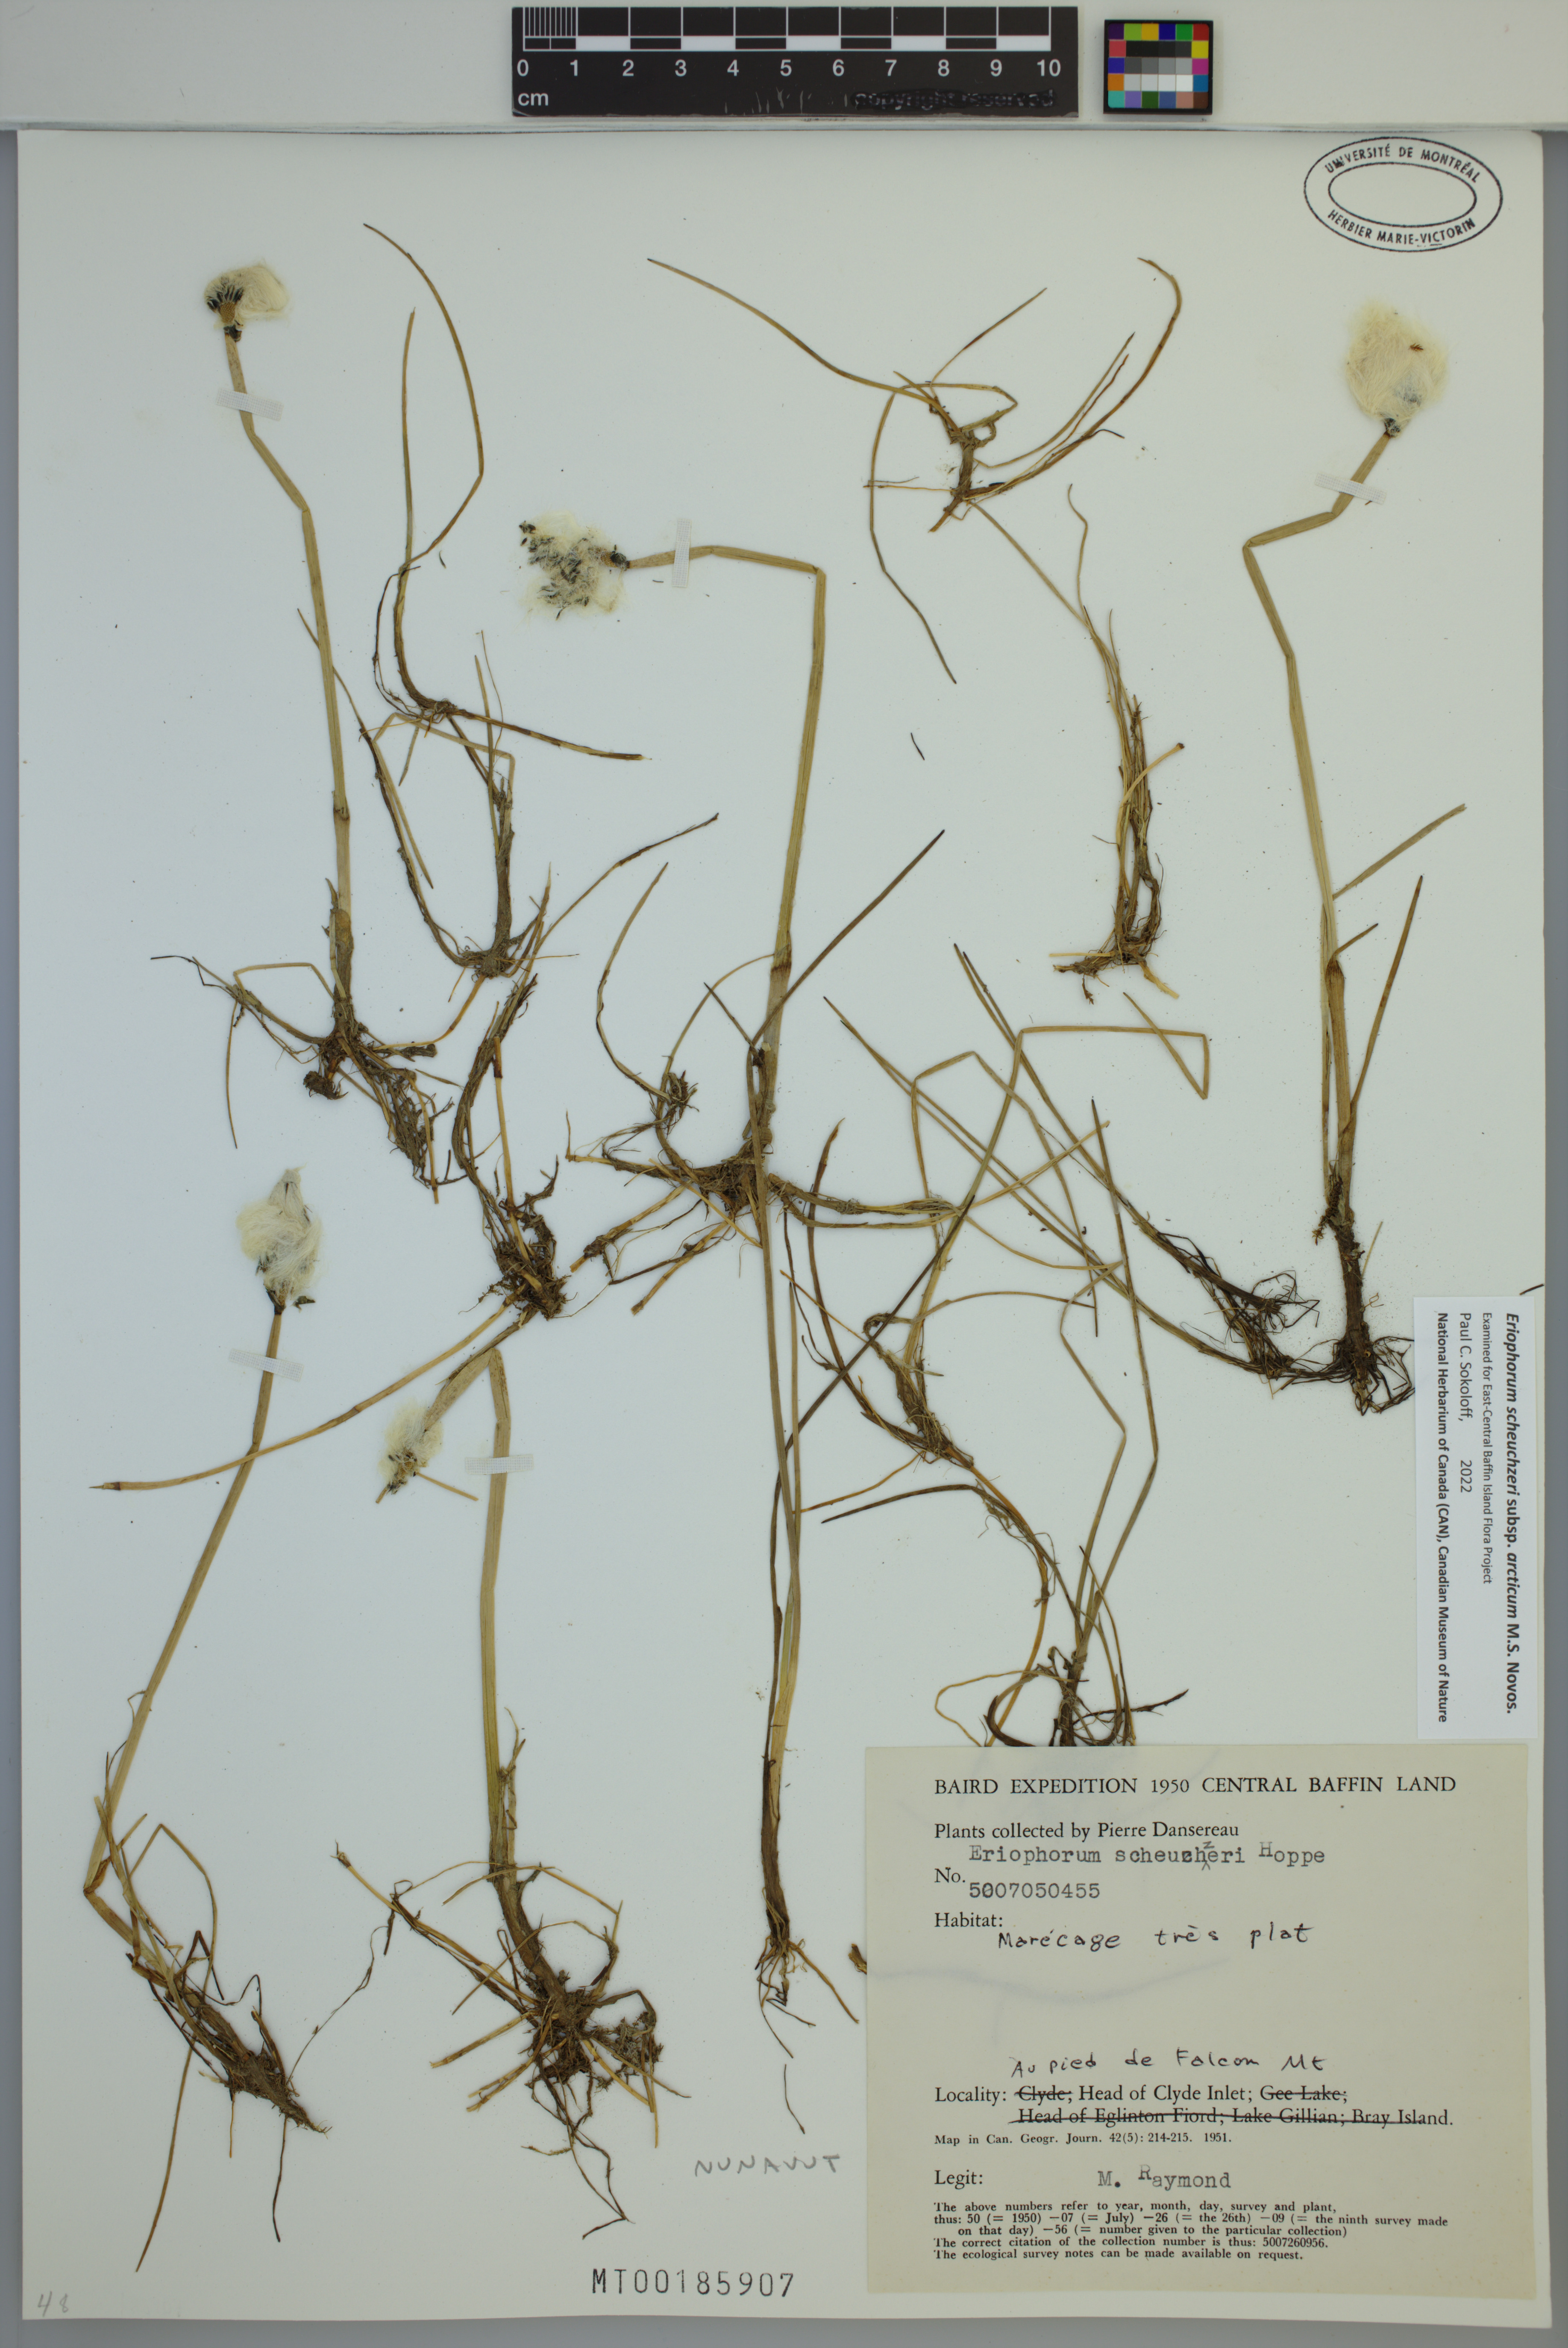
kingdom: Plantae
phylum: Tracheophyta
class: Liliopsida
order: Poales
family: Cyperaceae
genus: Eriophorum
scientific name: Eriophorum scheuchzeri
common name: Scheuchzer's cottongrass
